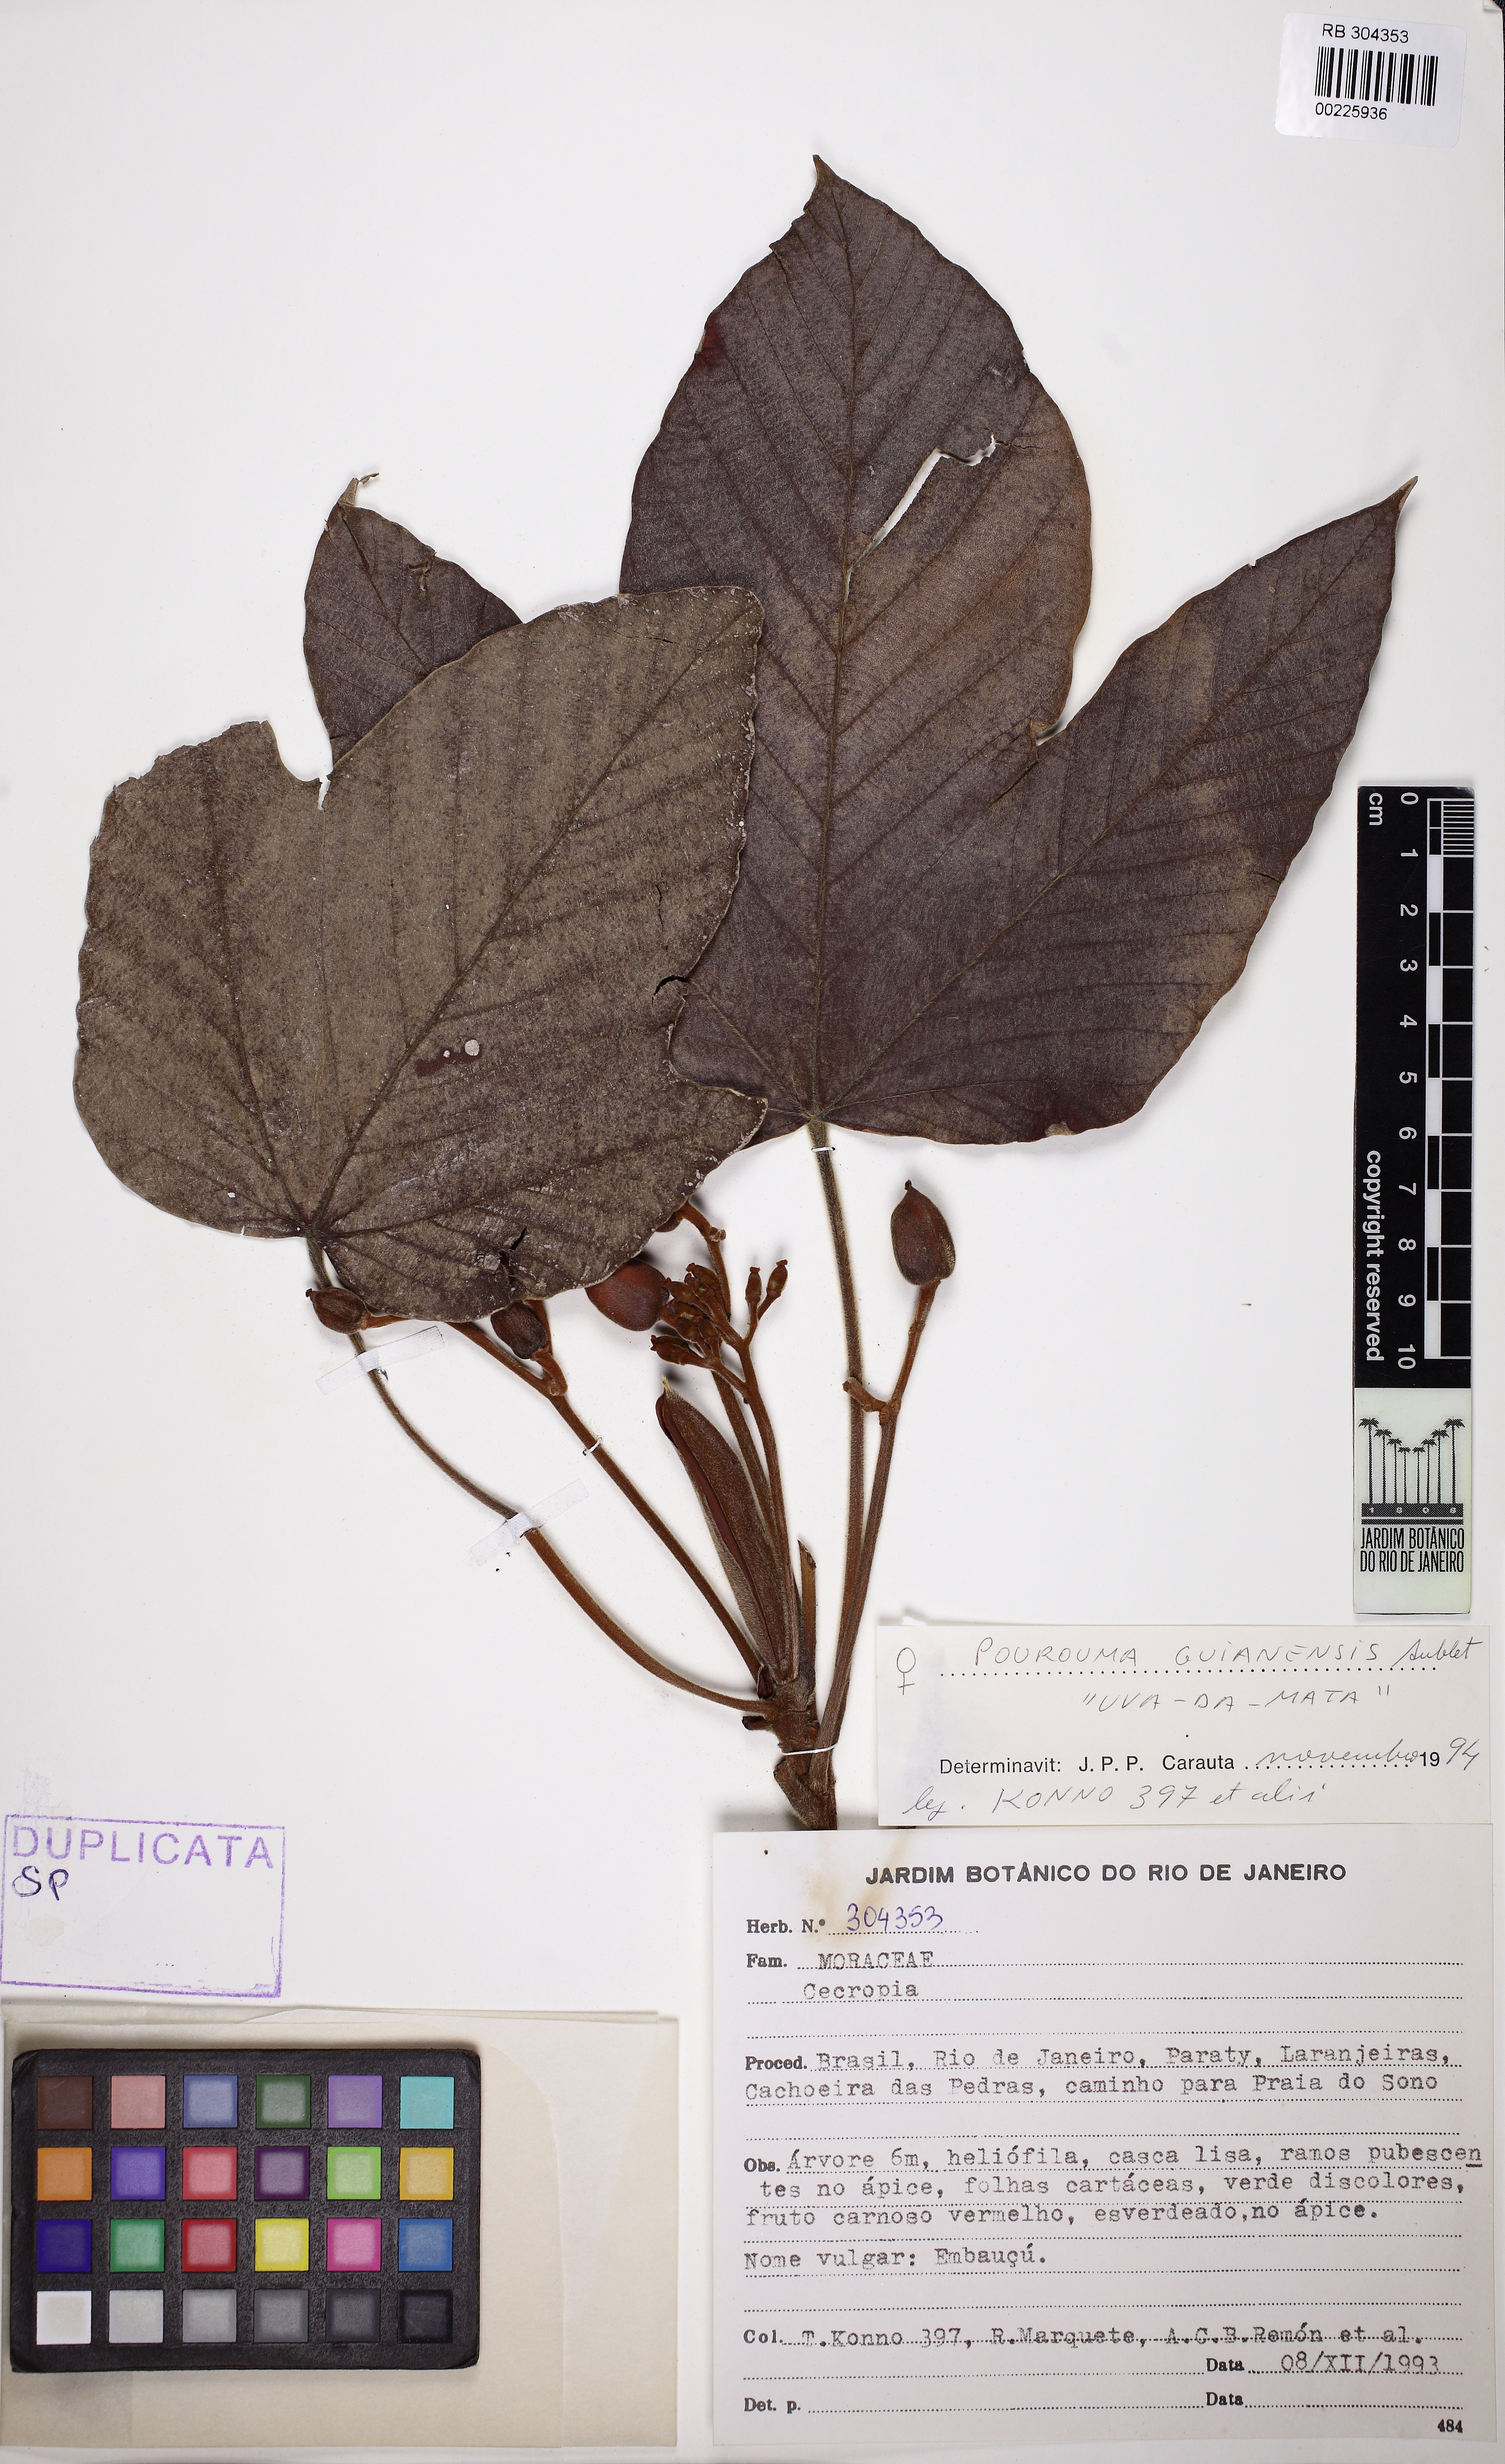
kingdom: Plantae
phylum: Tracheophyta
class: Magnoliopsida
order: Rosales
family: Urticaceae
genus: Pourouma
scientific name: Pourouma guianensis
